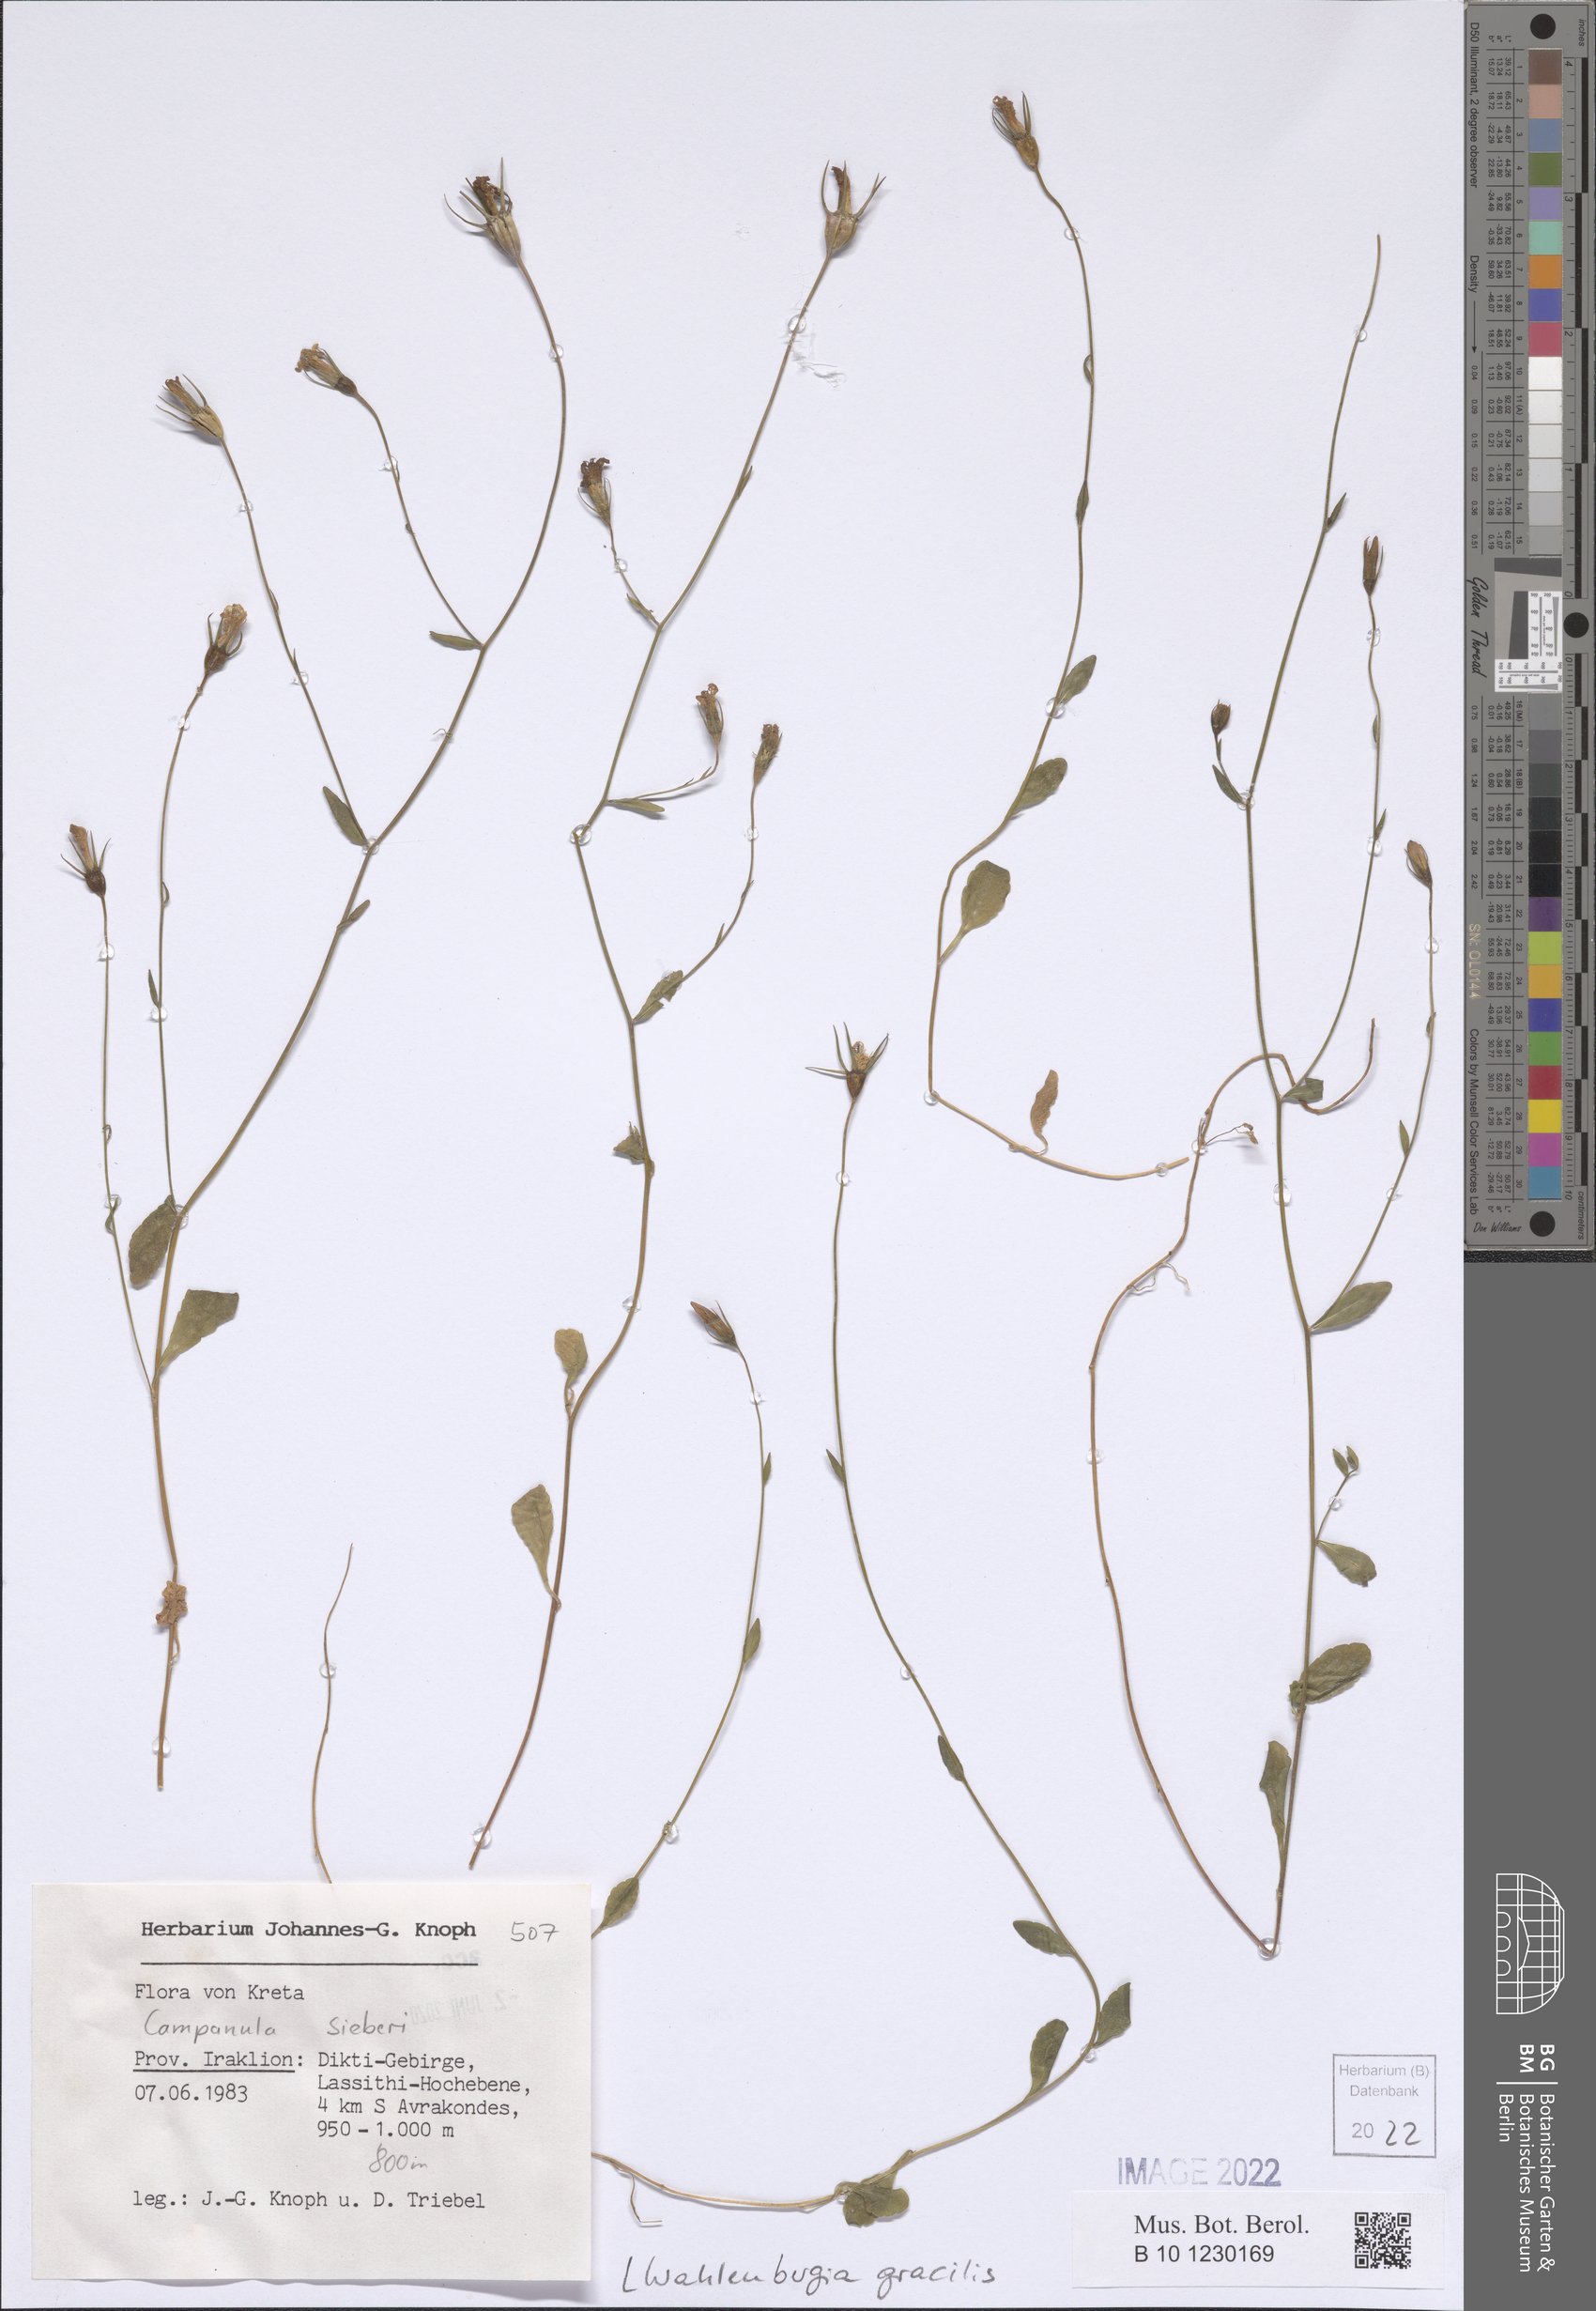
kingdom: Plantae
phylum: Tracheophyta
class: Magnoliopsida
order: Asterales
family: Campanulaceae
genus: Wahlenbergia
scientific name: Wahlenbergia gracilis
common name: Harebell
